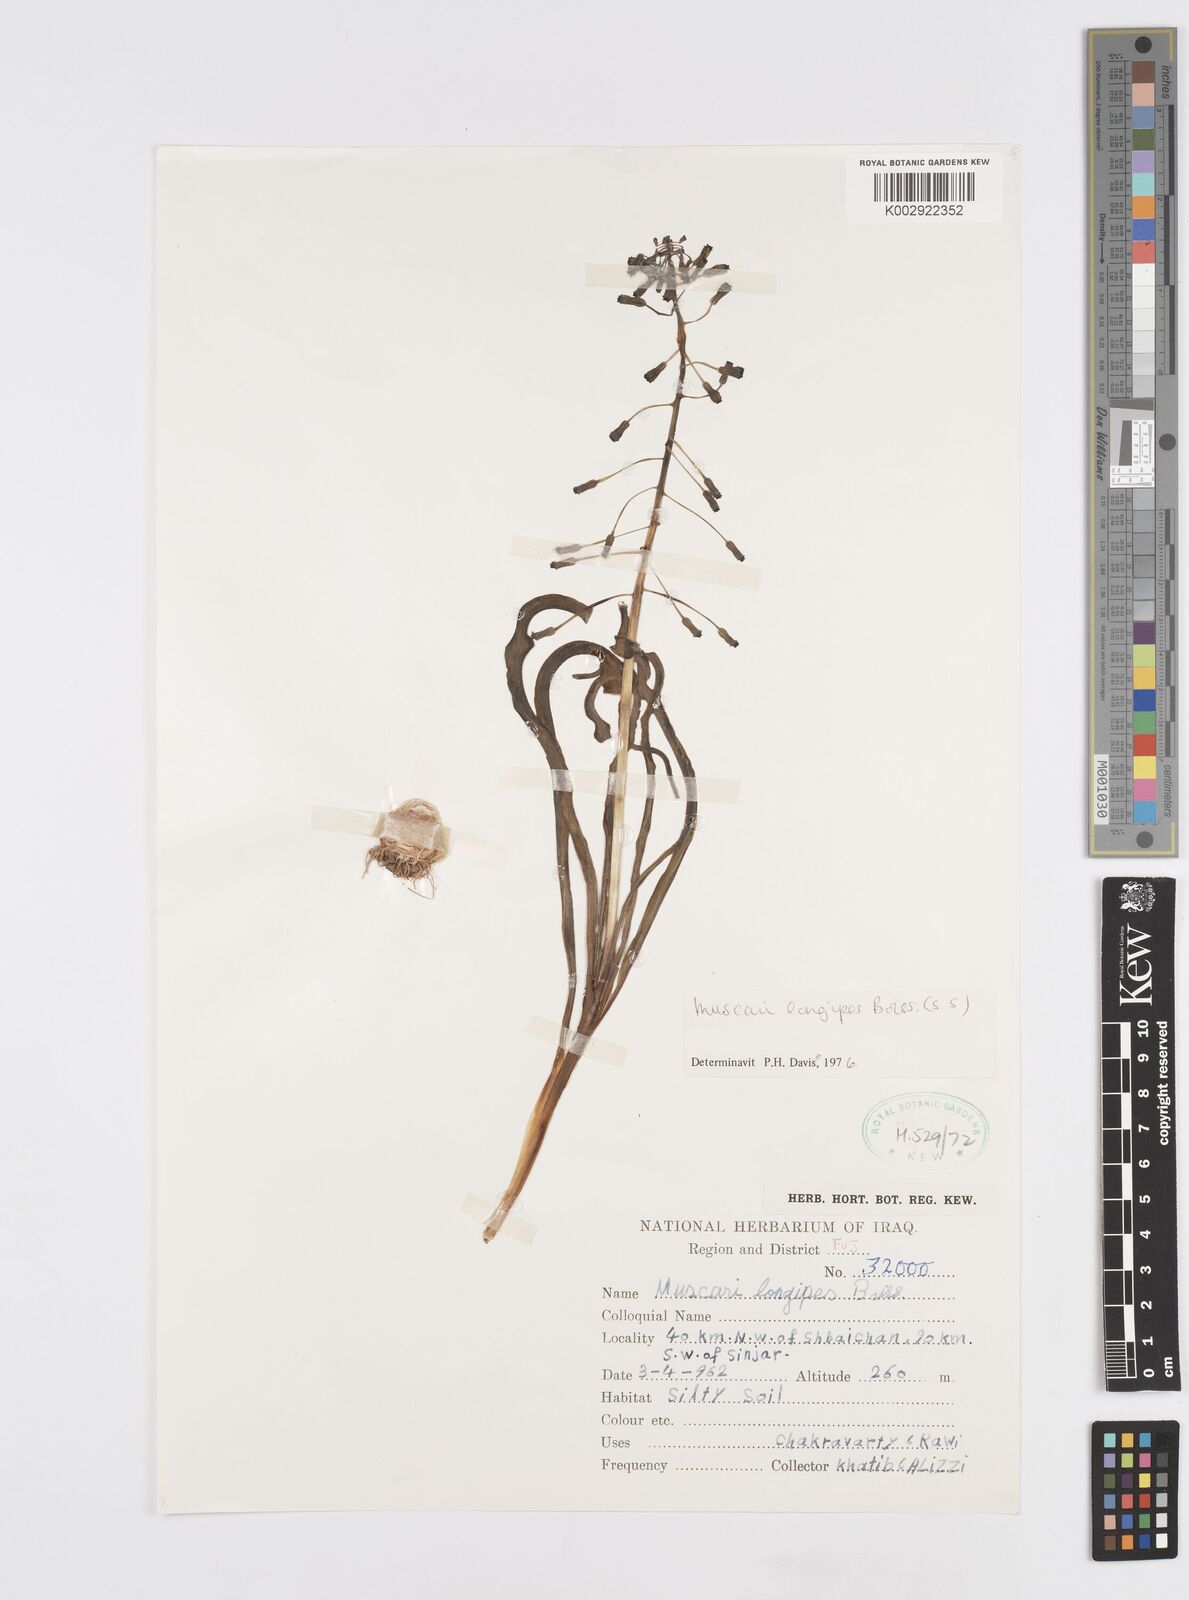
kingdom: Plantae
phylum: Tracheophyta
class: Liliopsida
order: Asparagales
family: Asparagaceae
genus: Muscari
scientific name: Muscari longipes
